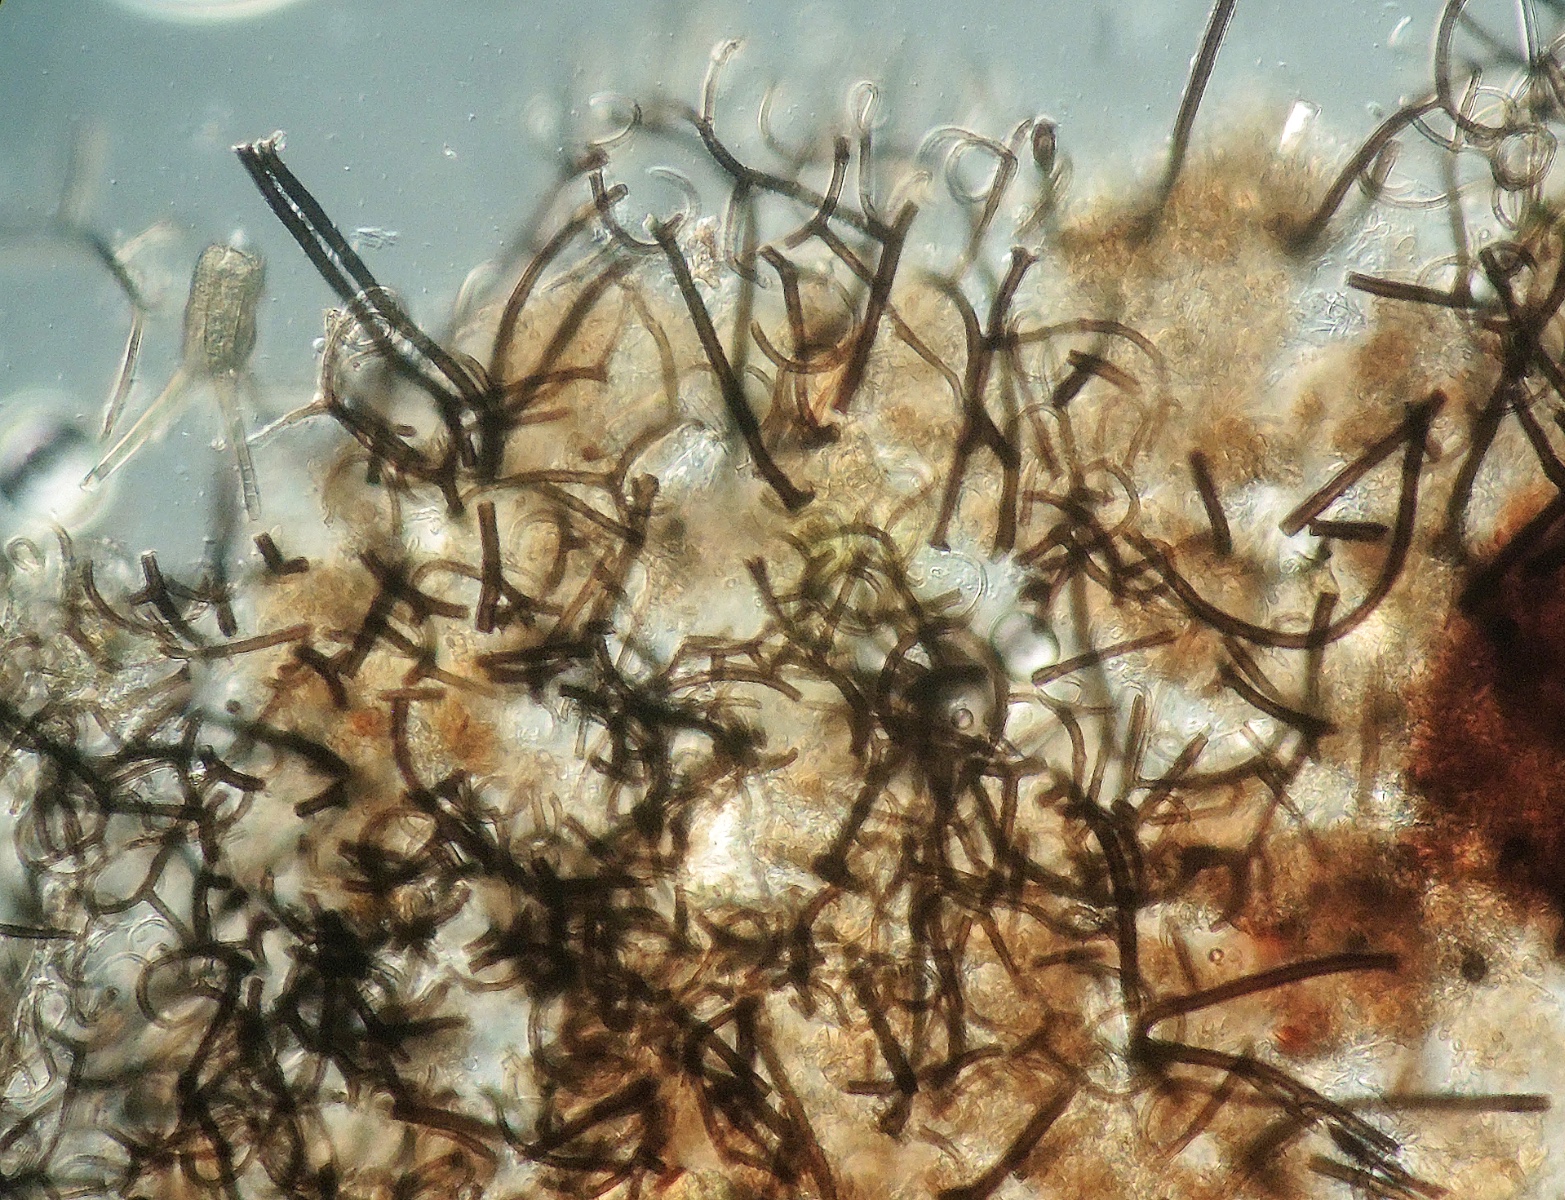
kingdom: Fungi
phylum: Ascomycota
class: Sordariomycetes
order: Xylariales
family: Microdochiaceae
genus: Gyrothrix
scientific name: Gyrothrix podosperma
